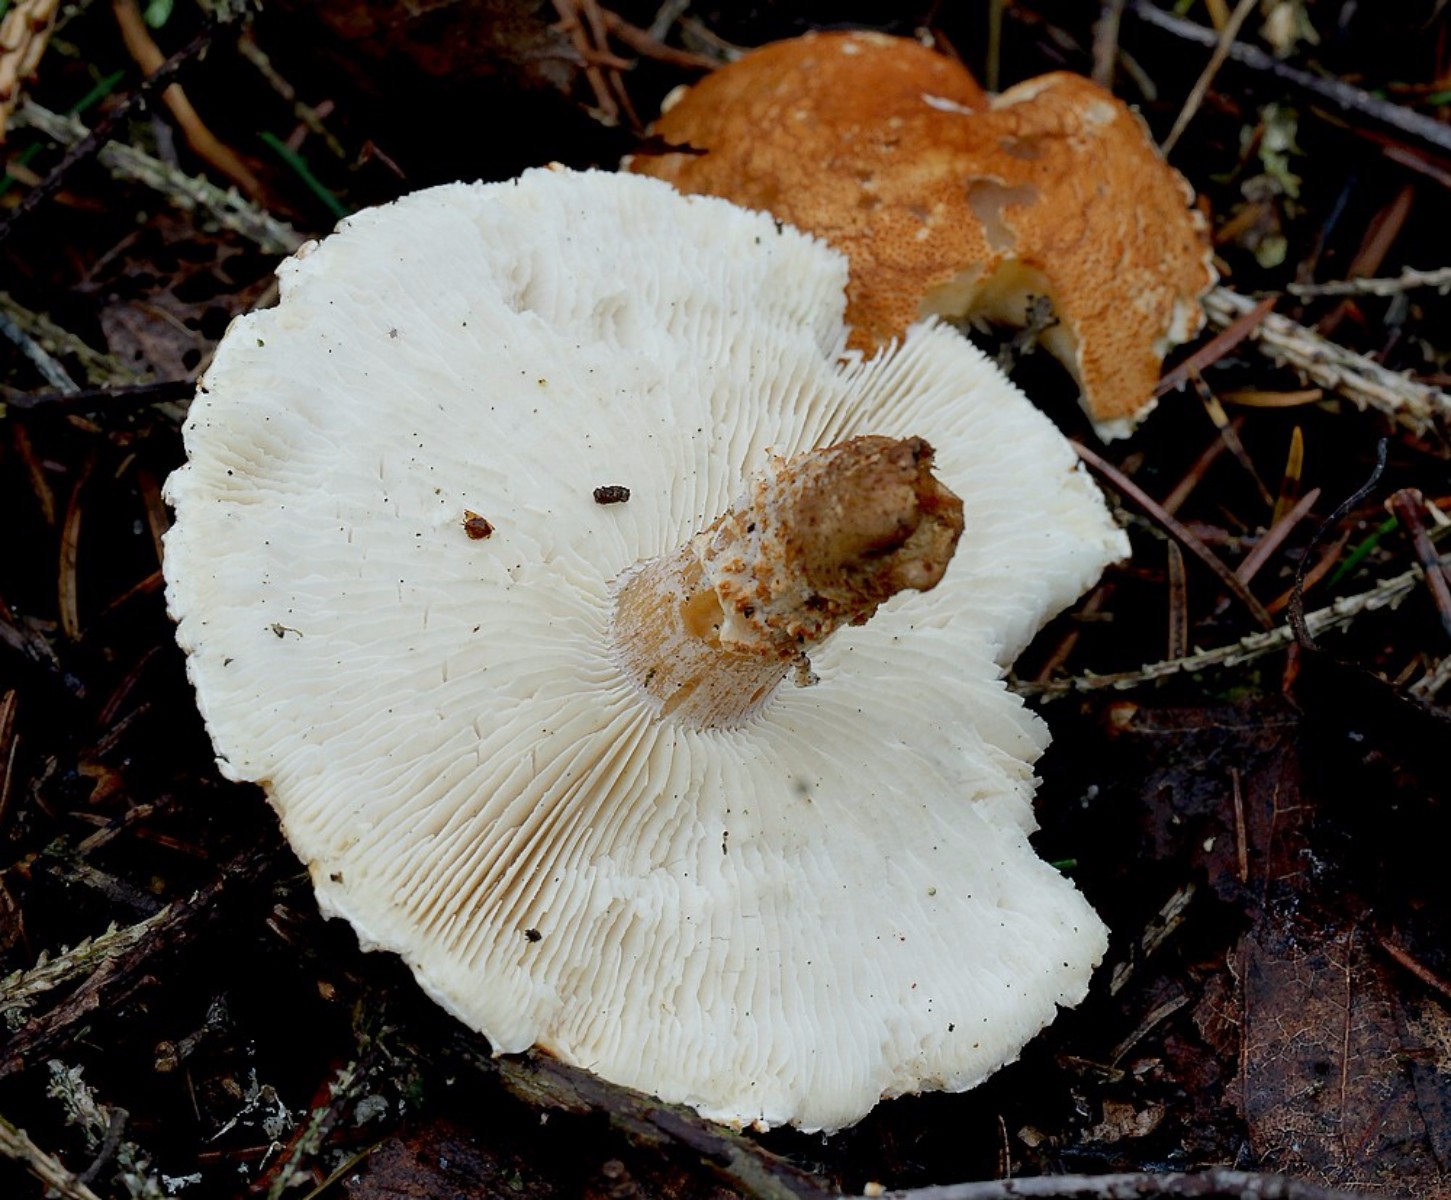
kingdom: Fungi
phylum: Basidiomycota
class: Agaricomycetes
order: Agaricales
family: Agaricaceae
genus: Cystodermella
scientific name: Cystodermella
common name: grynhat
